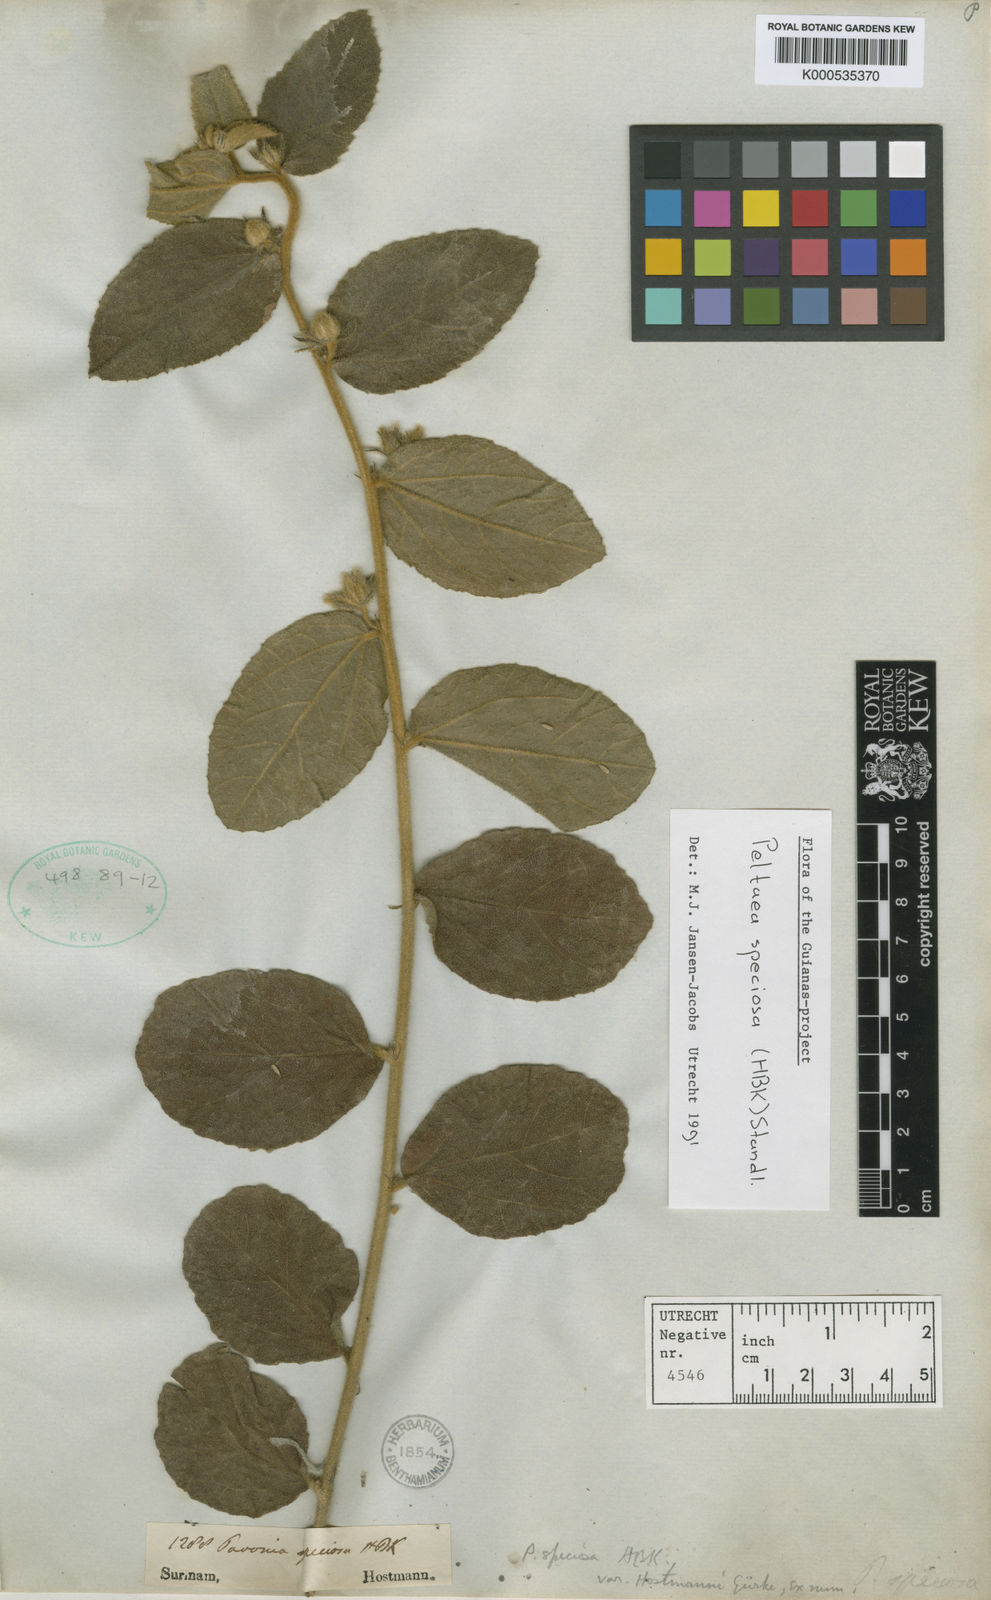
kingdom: Plantae
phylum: Tracheophyta
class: Magnoliopsida
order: Malvales
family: Malvaceae
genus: Peltaea
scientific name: Peltaea speciosa
